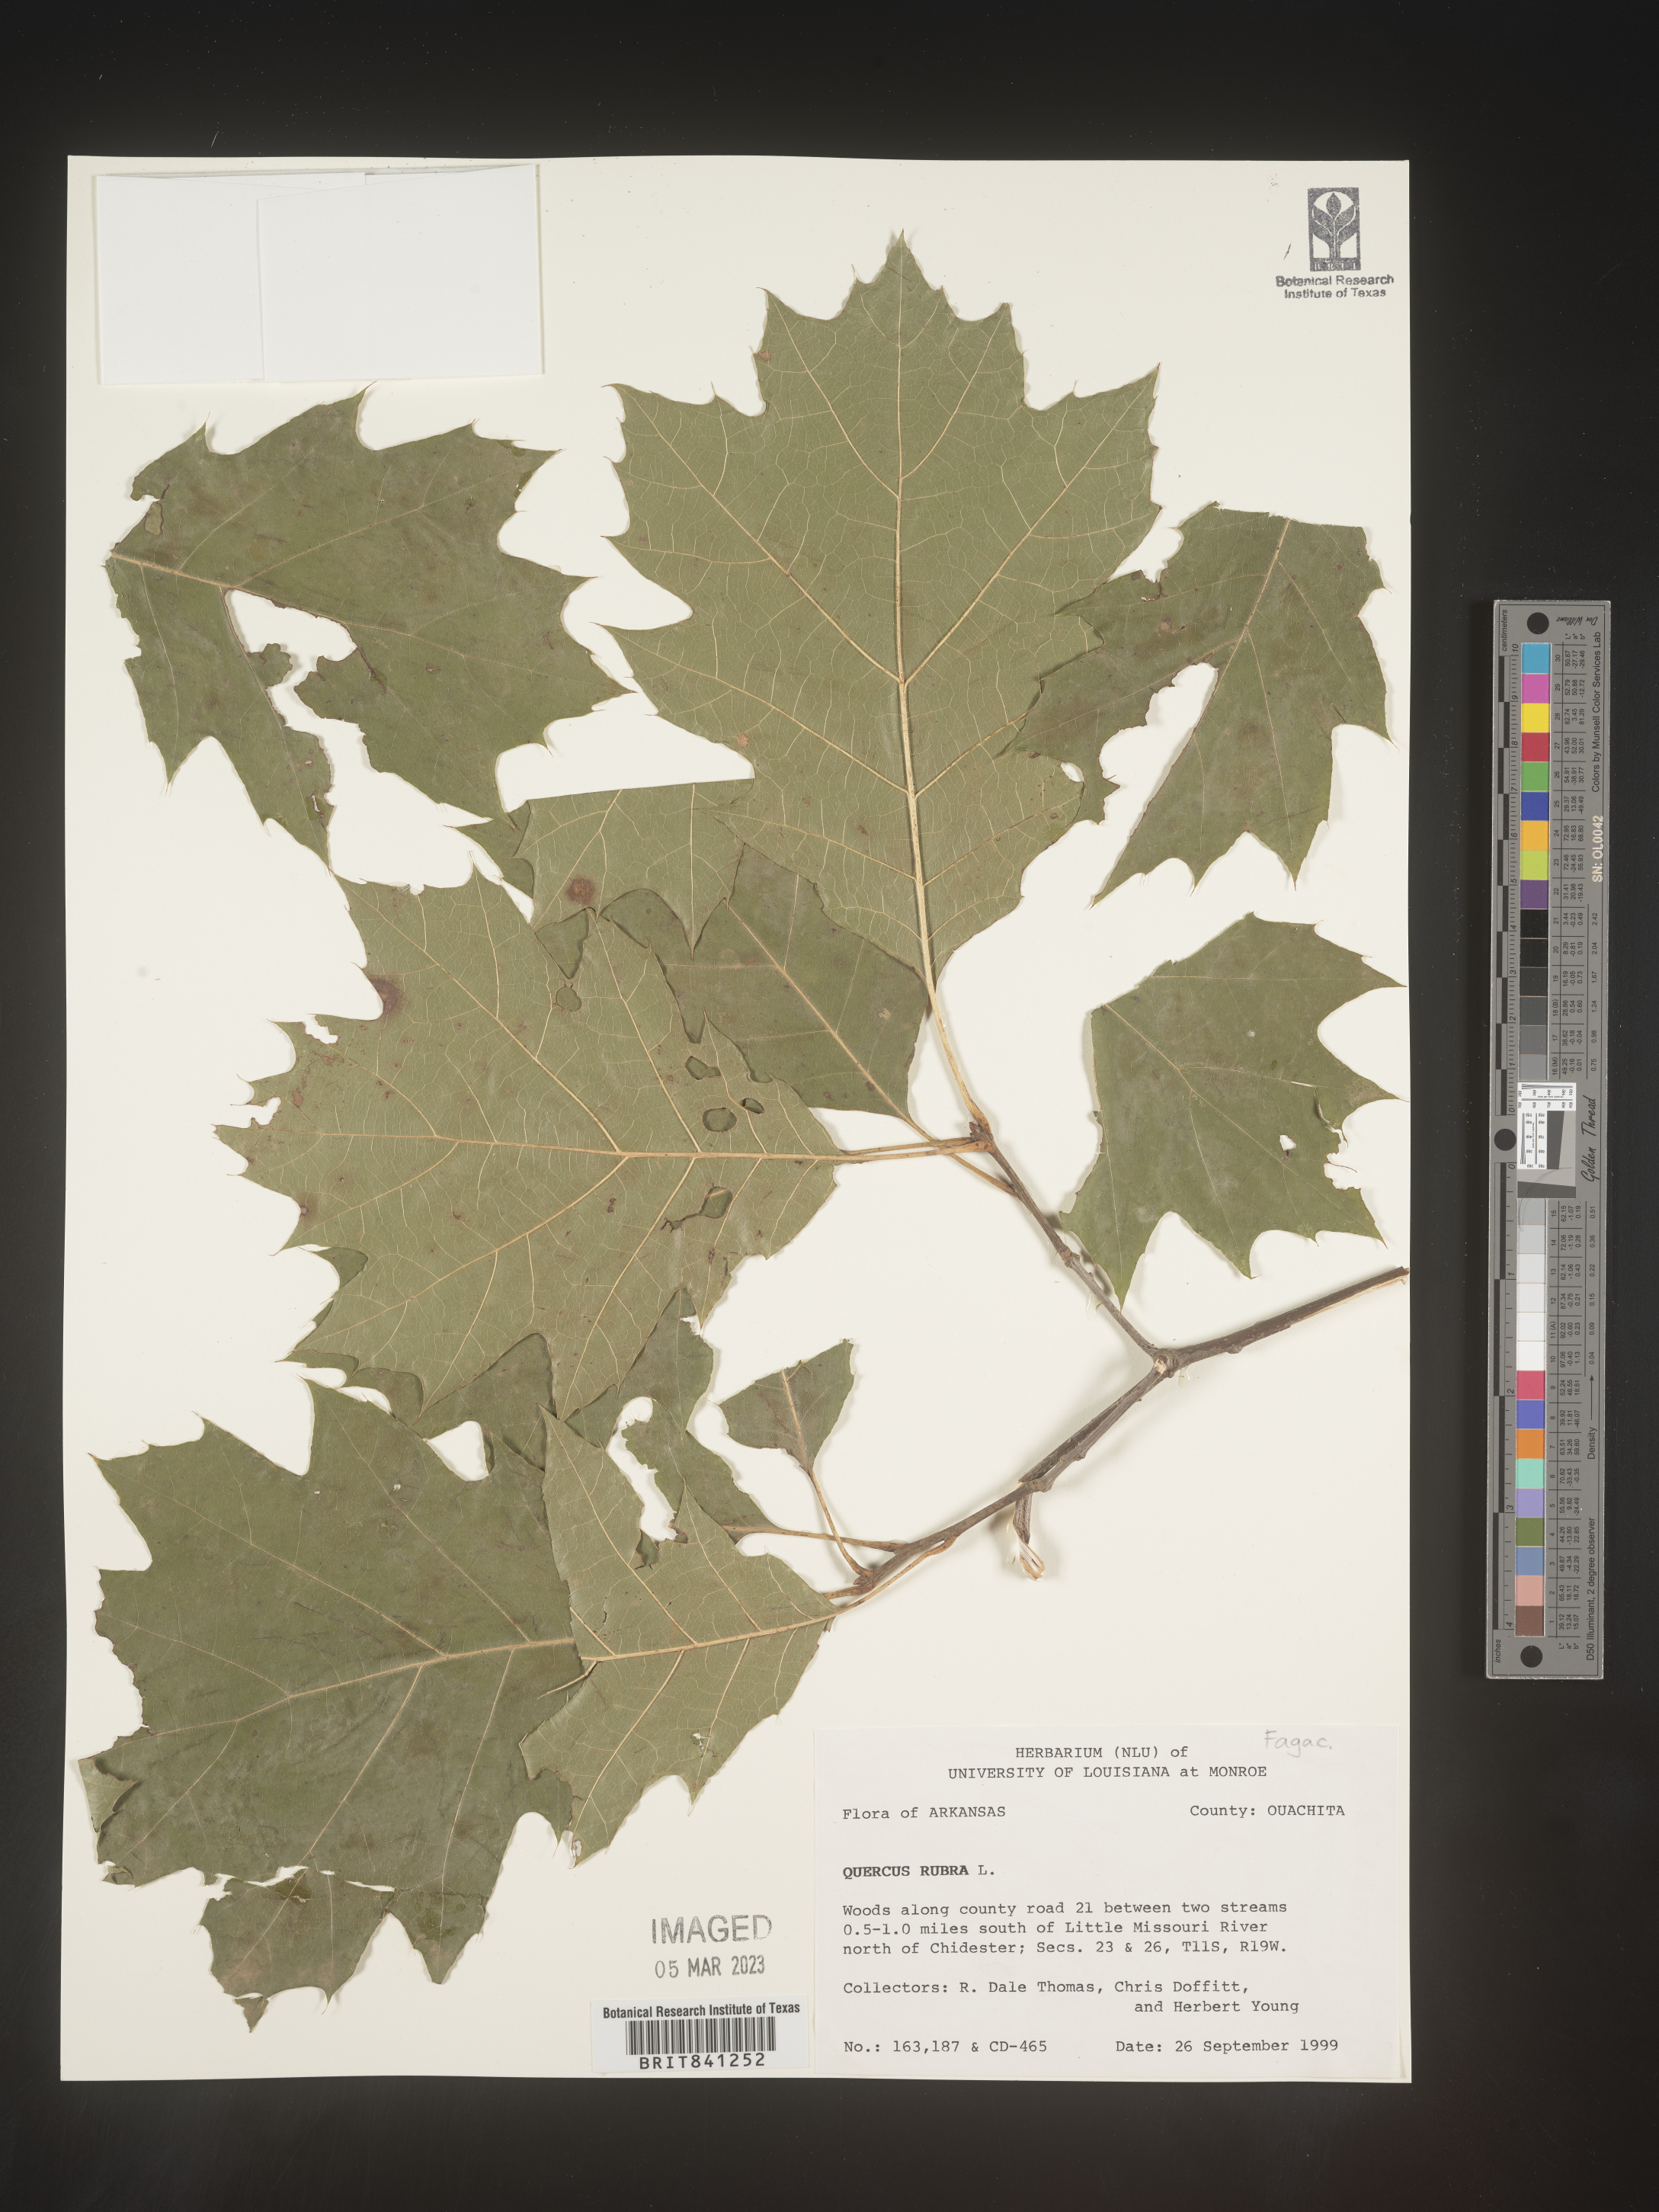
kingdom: Plantae
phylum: Tracheophyta
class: Magnoliopsida
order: Fagales
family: Fagaceae
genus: Quercus
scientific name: Quercus rubra
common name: Red oak
